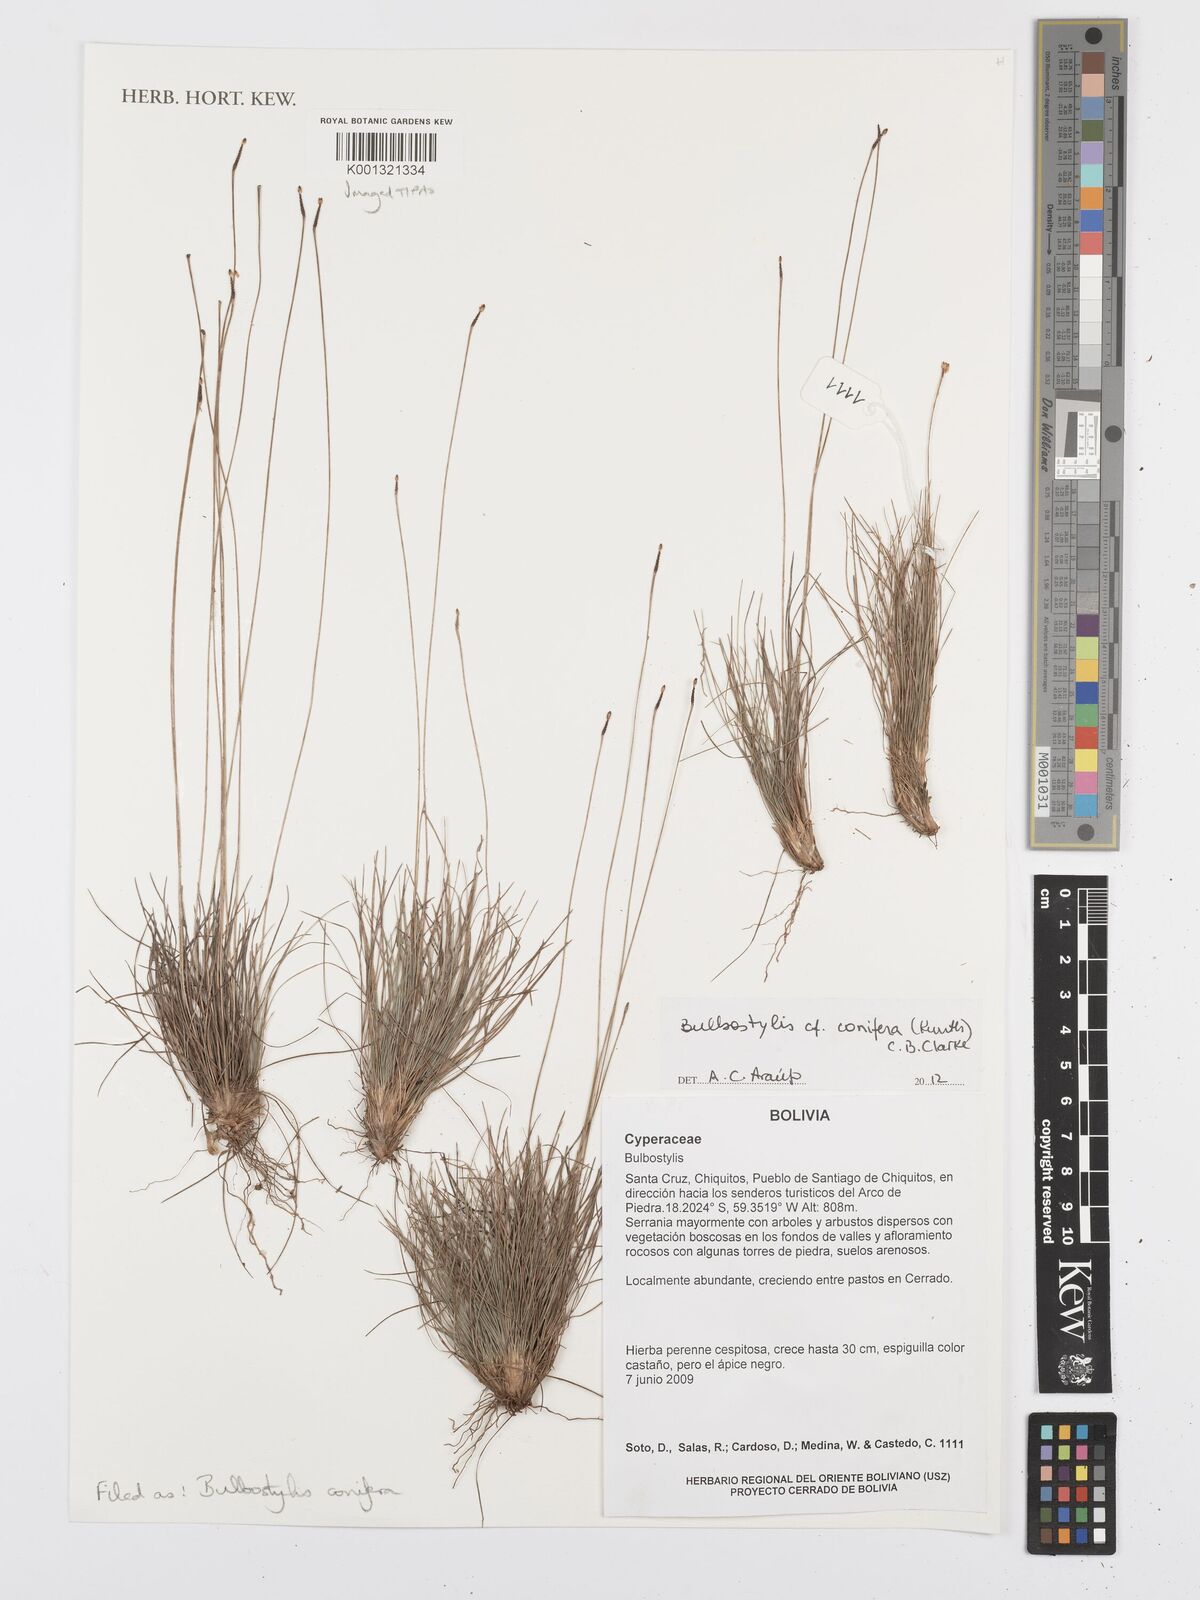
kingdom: Plantae
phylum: Tracheophyta
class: Liliopsida
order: Poales
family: Cyperaceae
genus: Bulbostylis
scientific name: Bulbostylis conifera
